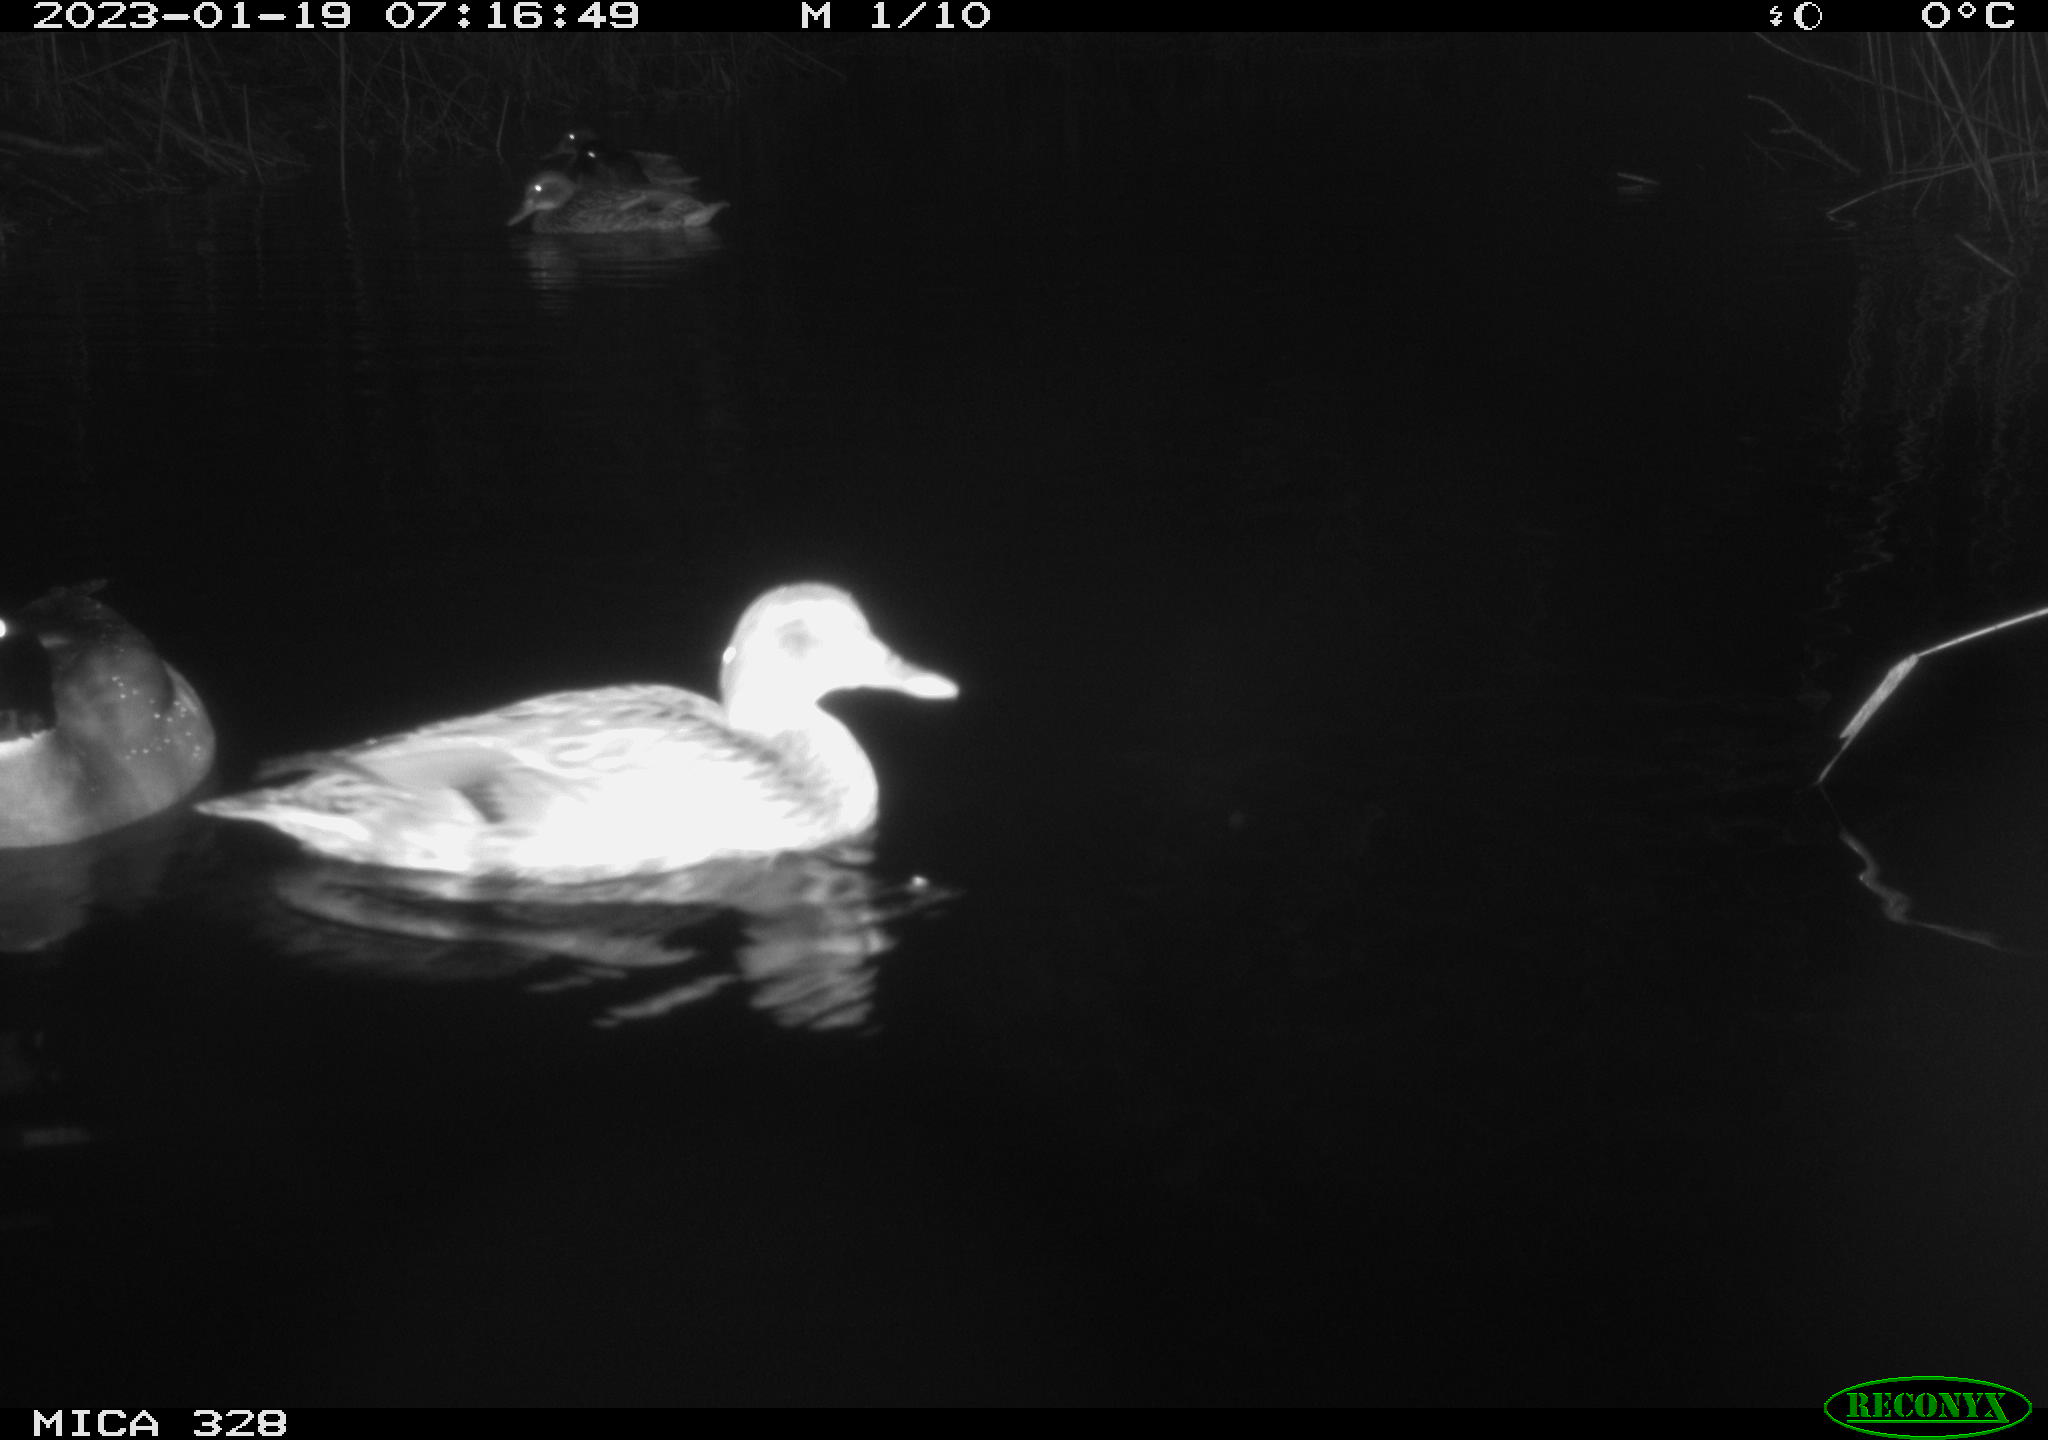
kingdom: Animalia
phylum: Chordata
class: Aves
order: Anseriformes
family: Anatidae
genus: Anas
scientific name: Anas
